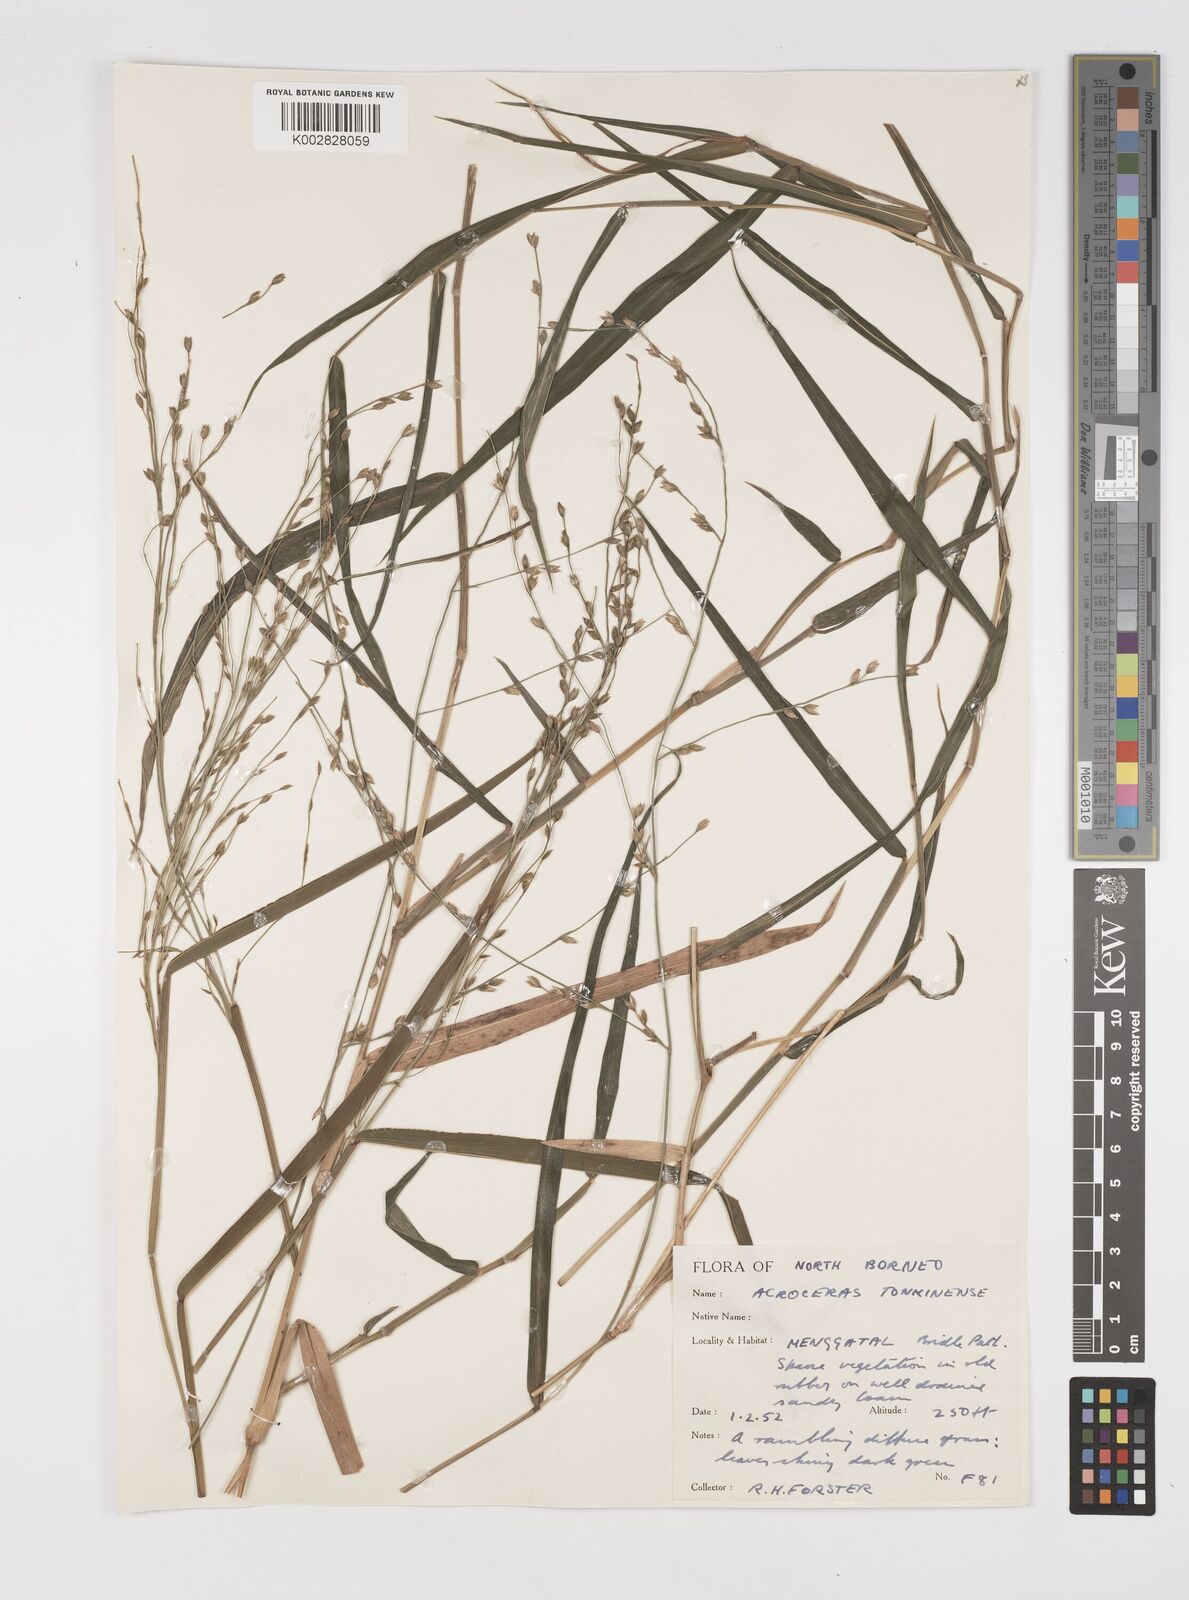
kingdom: Plantae
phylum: Tracheophyta
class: Liliopsida
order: Poales
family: Poaceae
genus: Acroceras
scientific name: Acroceras tonkinense
